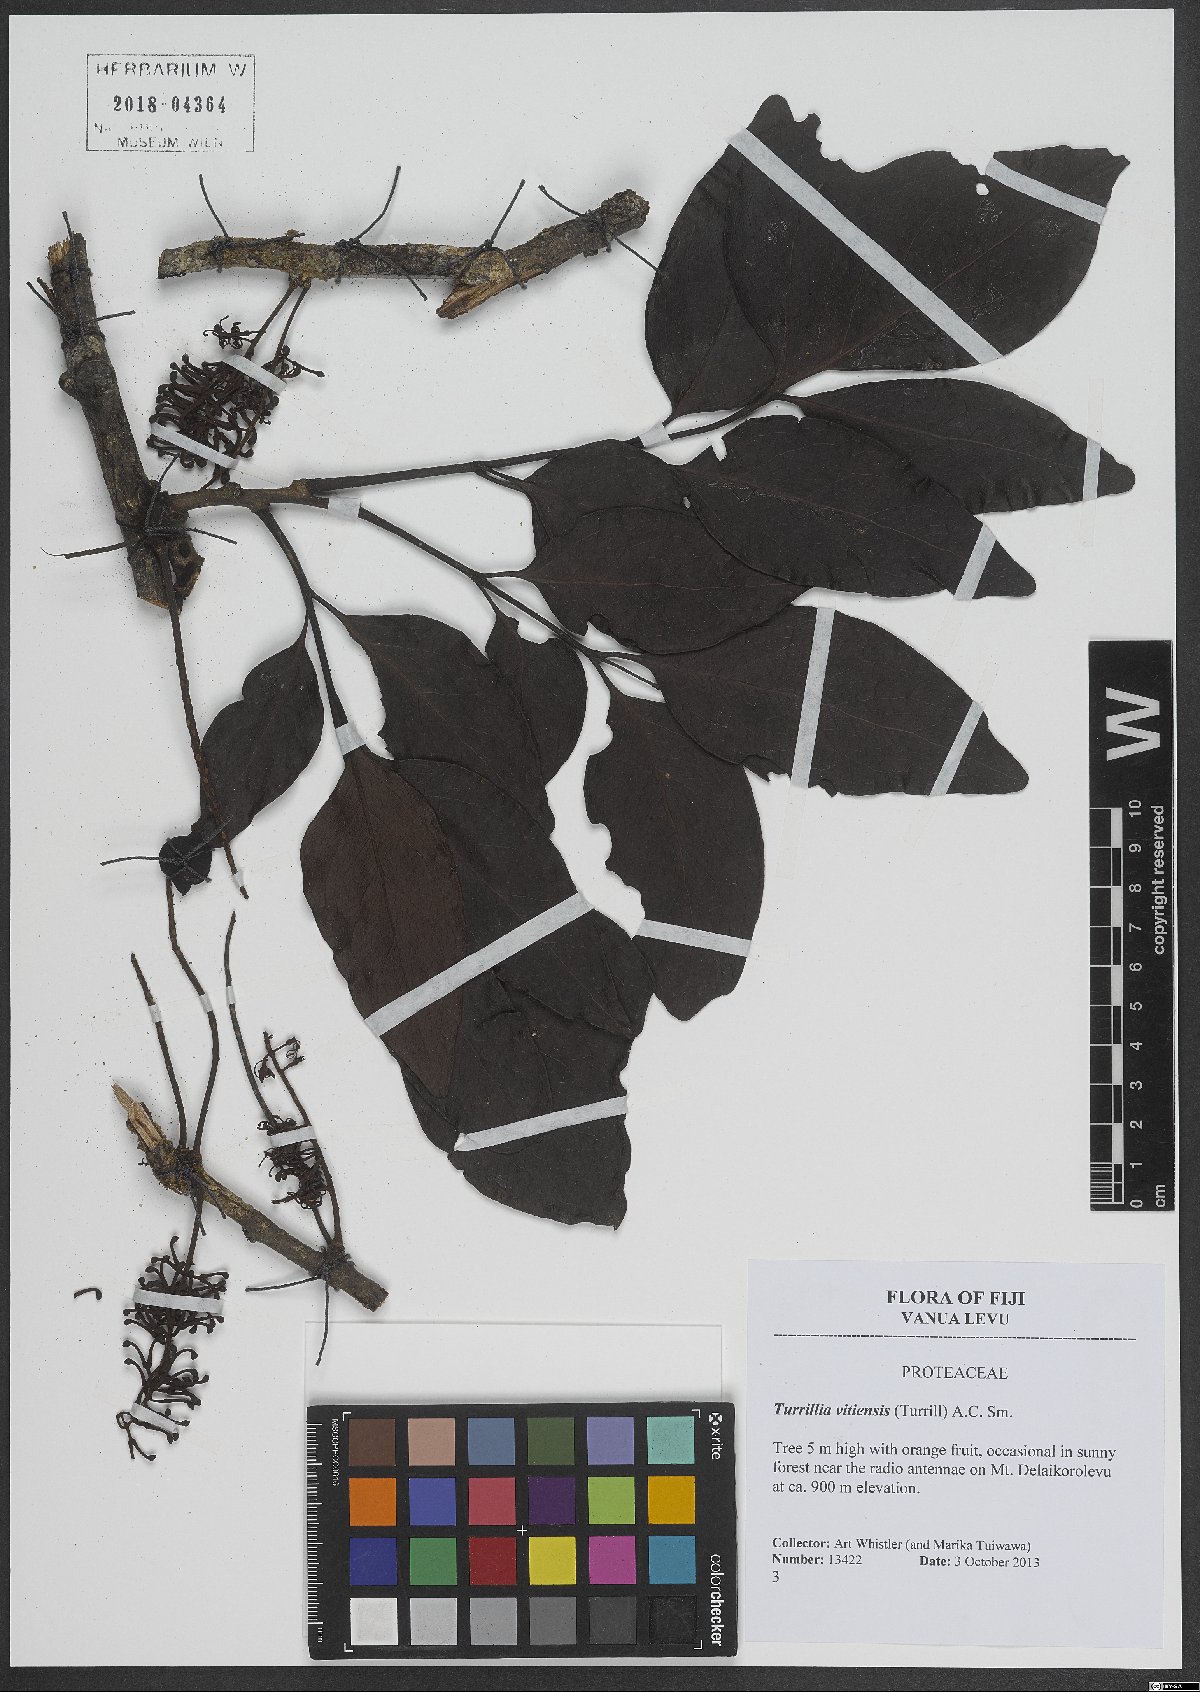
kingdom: Plantae
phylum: Tracheophyta
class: Magnoliopsida
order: Proteales
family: Proteaceae
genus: Turrillia
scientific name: Turrillia vitiensis
